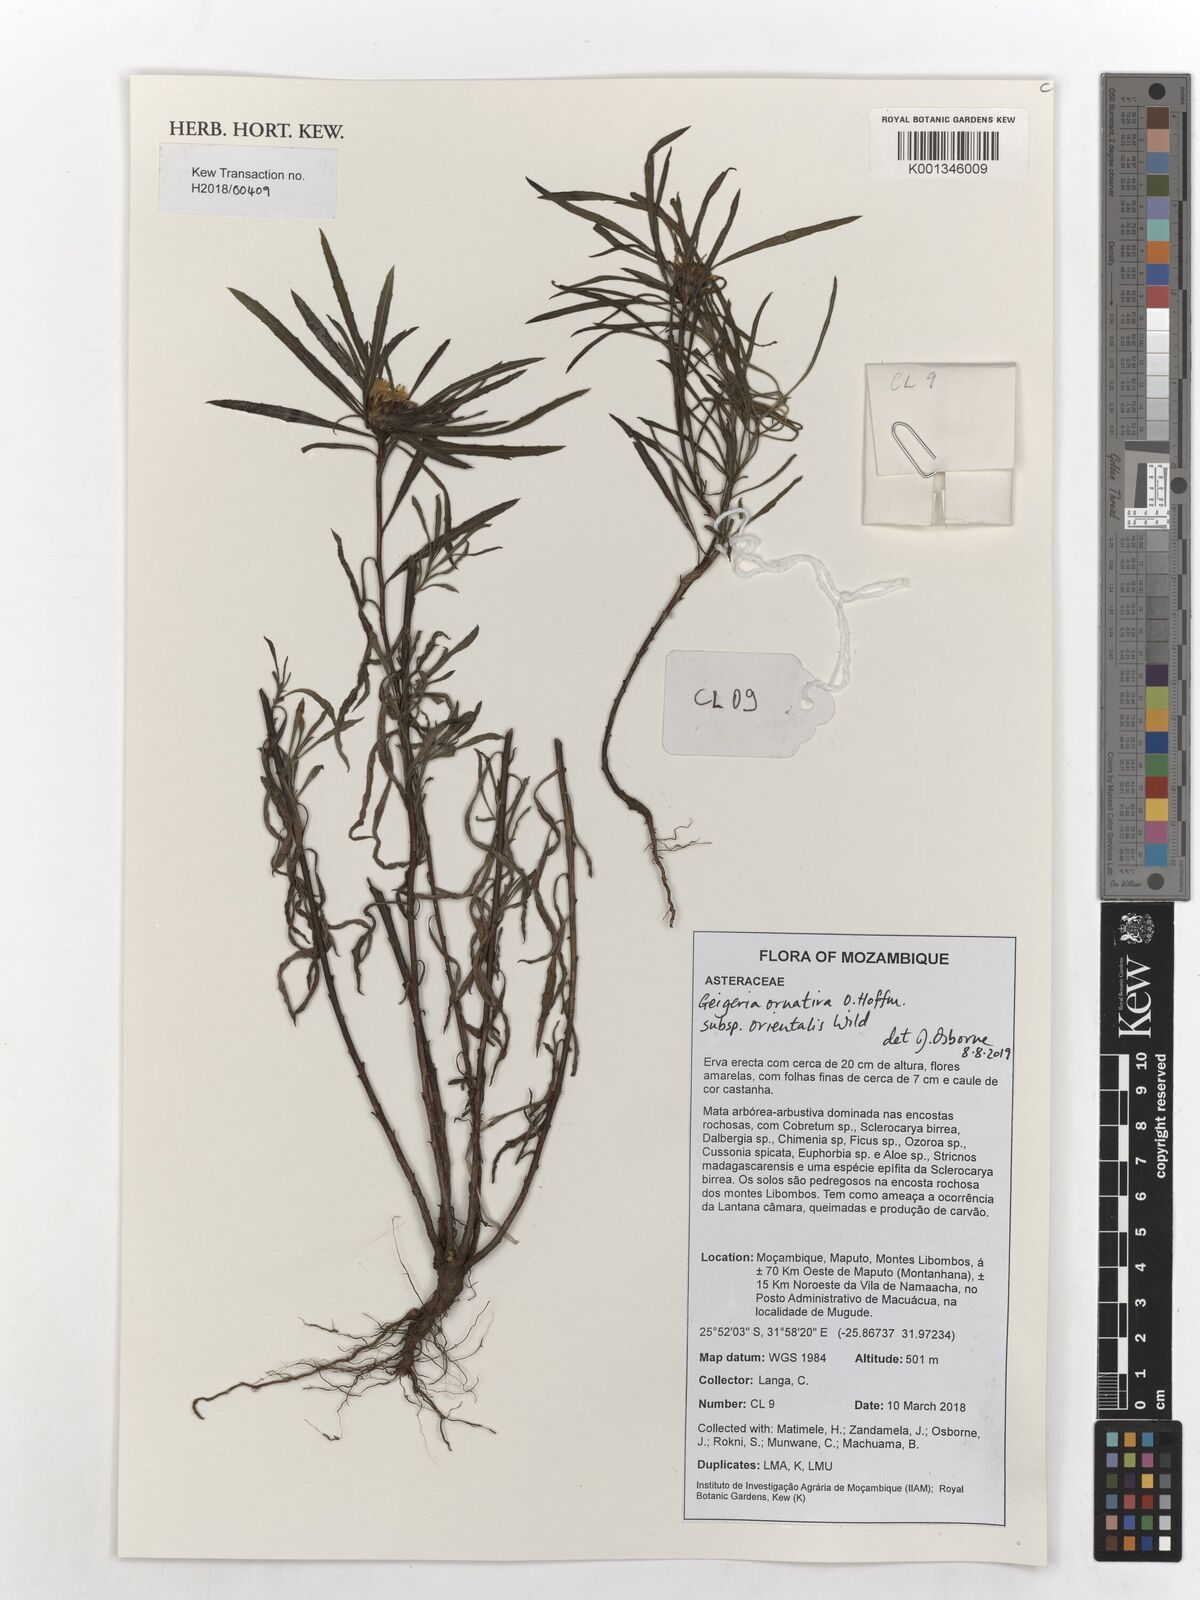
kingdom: Plantae
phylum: Tracheophyta
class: Magnoliopsida
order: Asterales
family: Asteraceae
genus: Geigeria
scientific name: Geigeria ornativa
